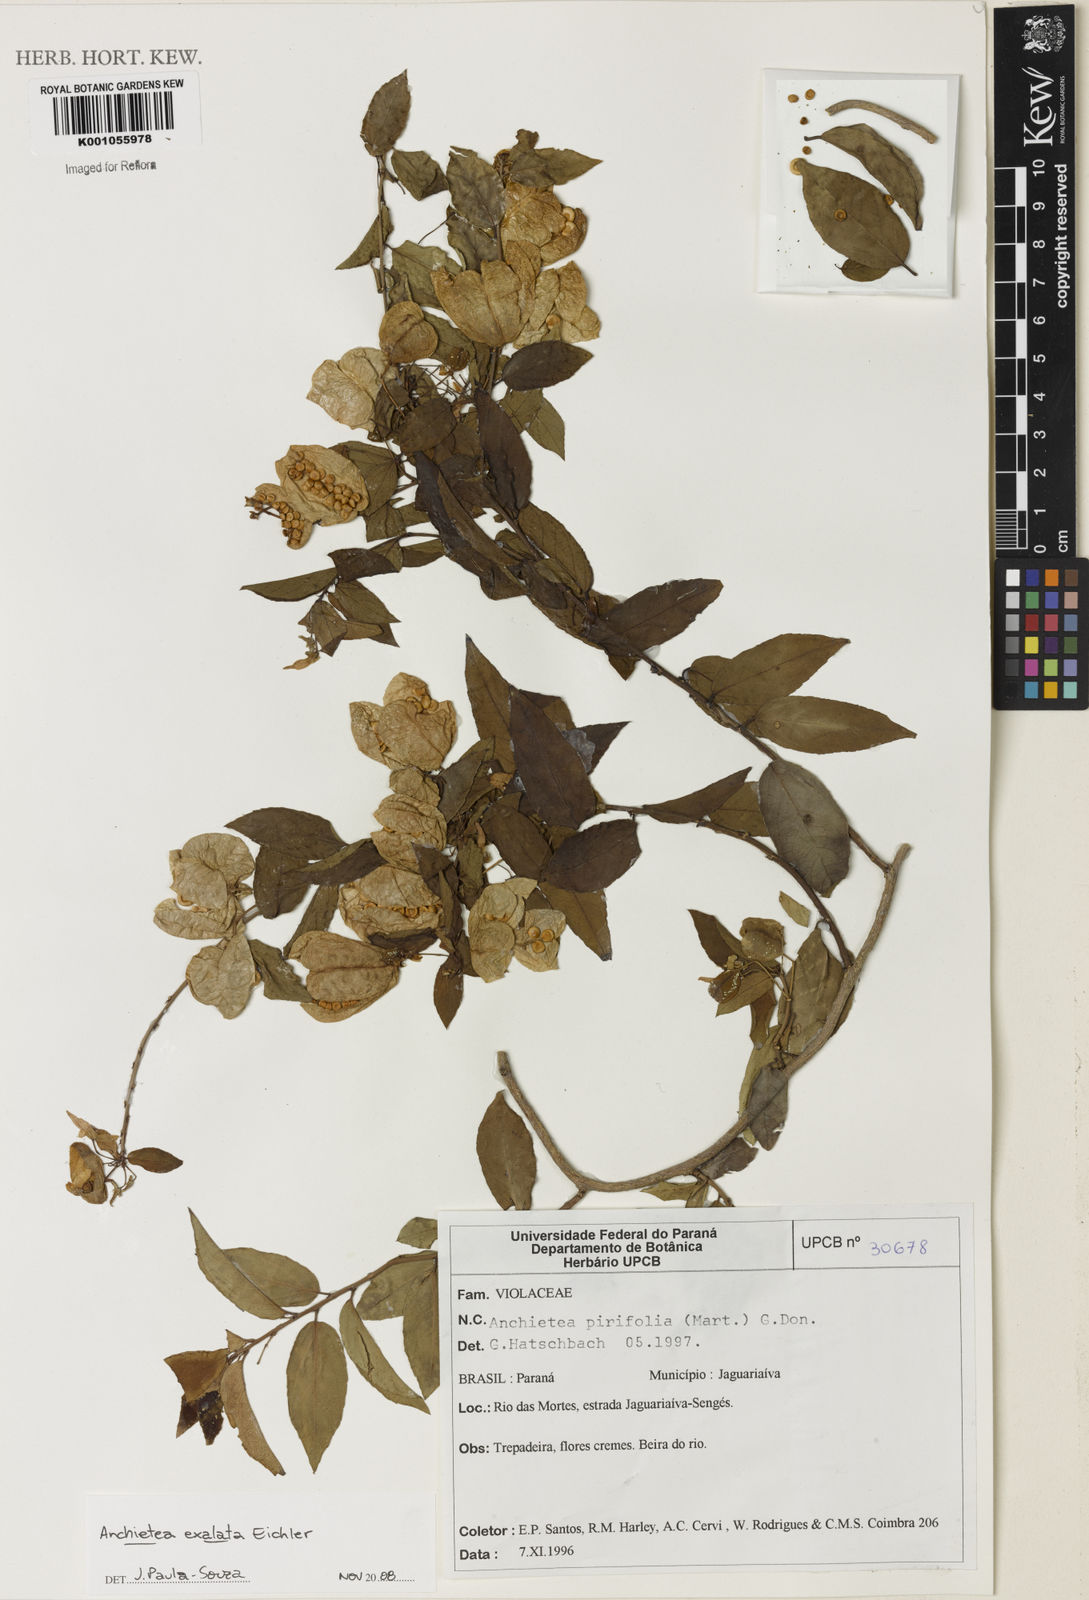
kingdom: Plantae
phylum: Tracheophyta
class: Magnoliopsida
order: Malpighiales
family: Violaceae
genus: Anchietea
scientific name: Anchietea pyrifolia
